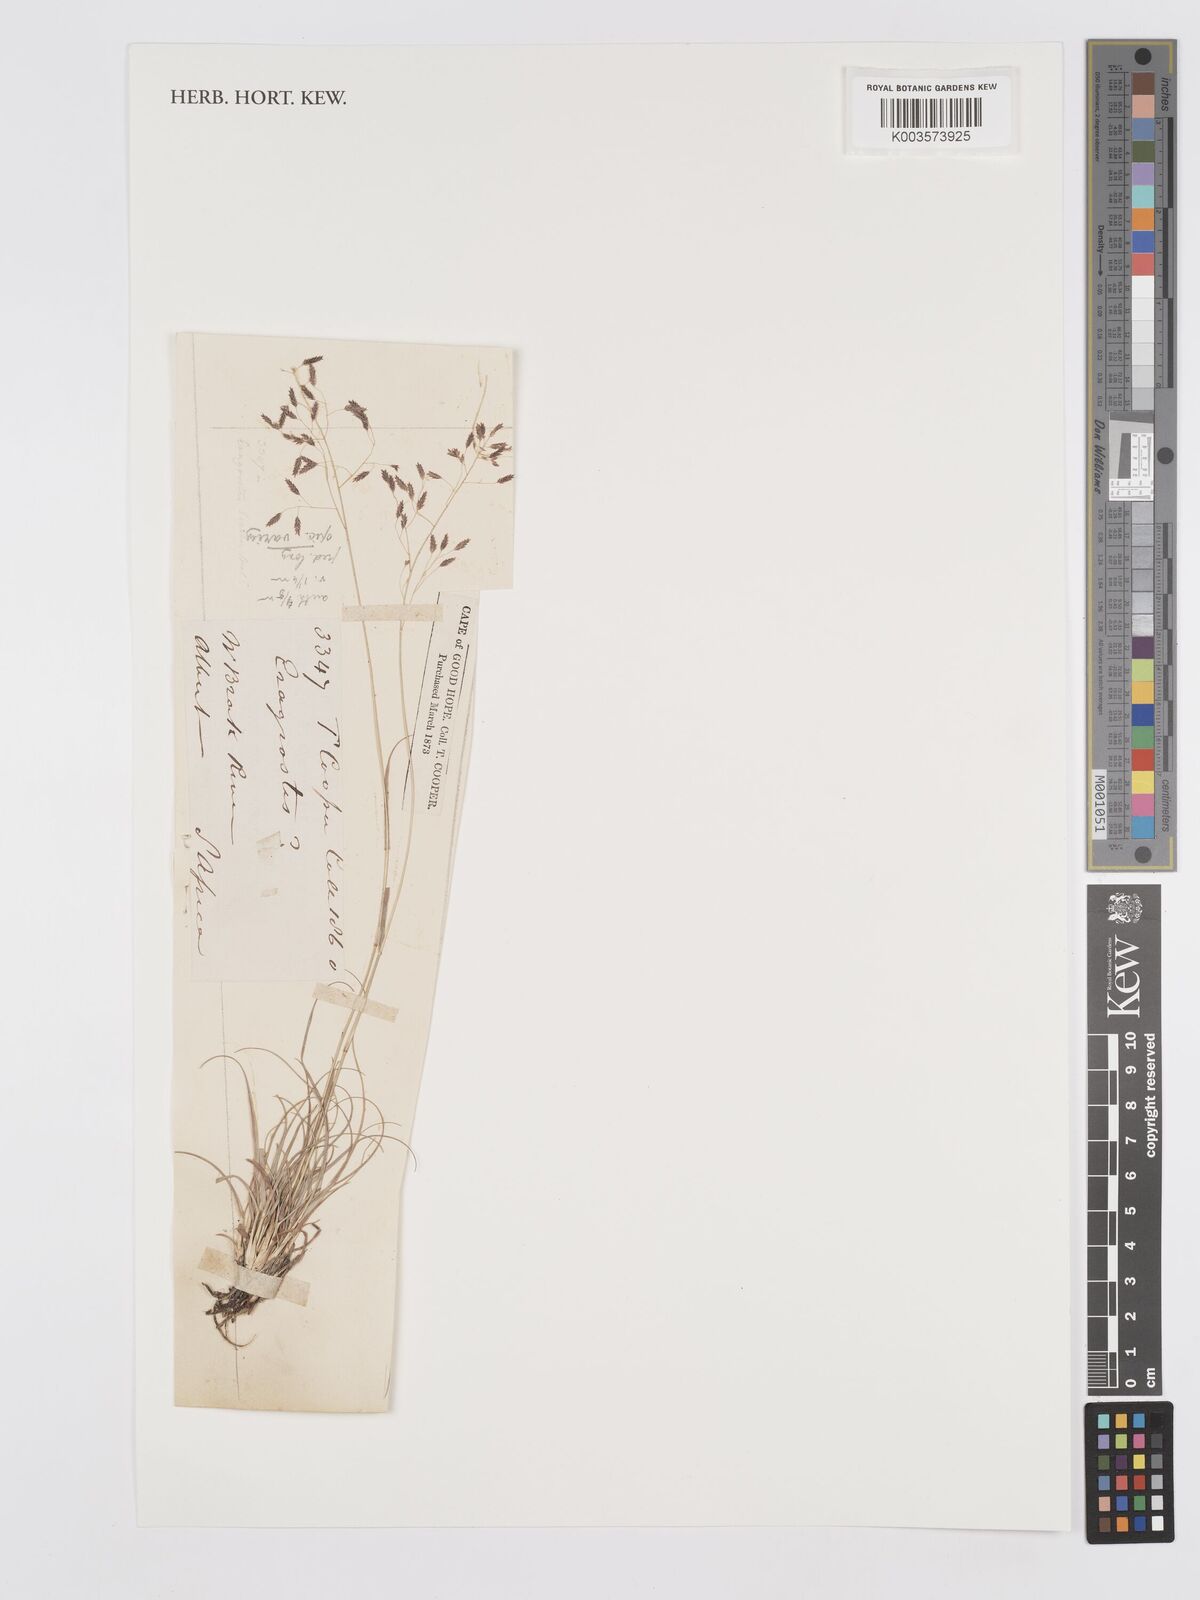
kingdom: Plantae
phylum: Tracheophyta
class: Liliopsida
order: Poales
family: Poaceae
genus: Eragrostis
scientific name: Eragrostis
